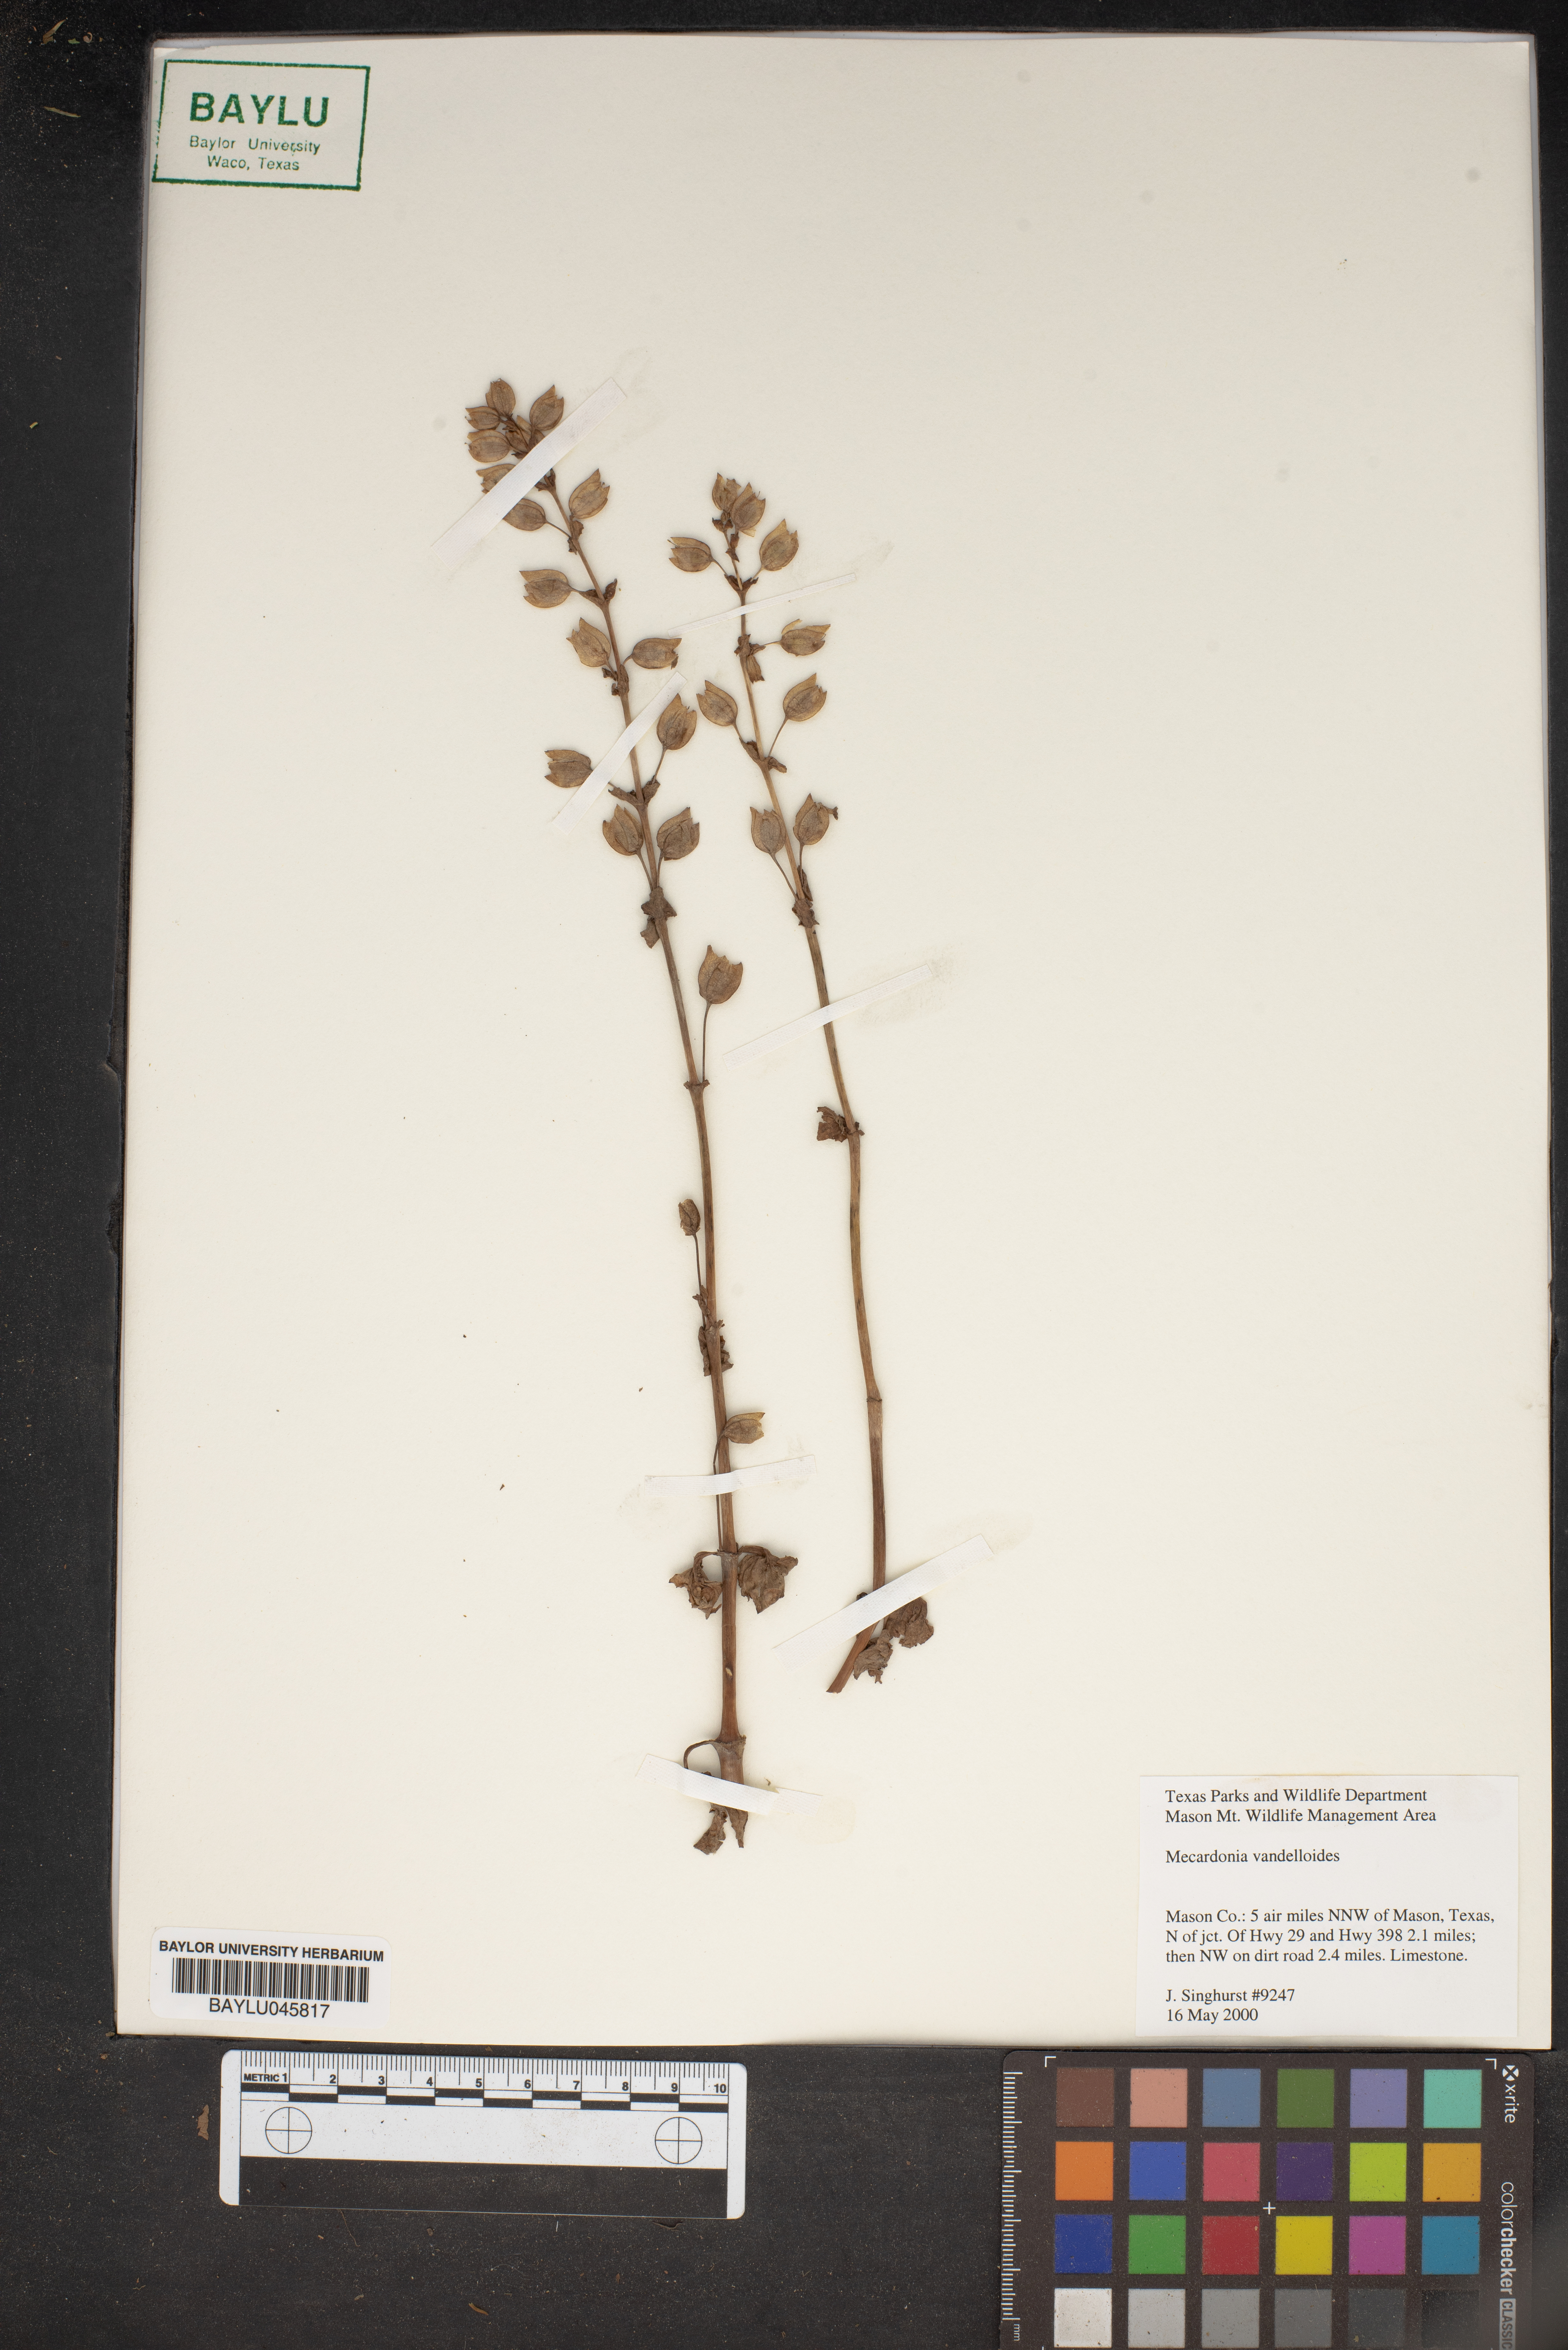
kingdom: Plantae
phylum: Tracheophyta
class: Magnoliopsida
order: Lamiales
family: Plantaginaceae
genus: Mecardonia
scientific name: Mecardonia procumbens
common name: Baby jump-up
